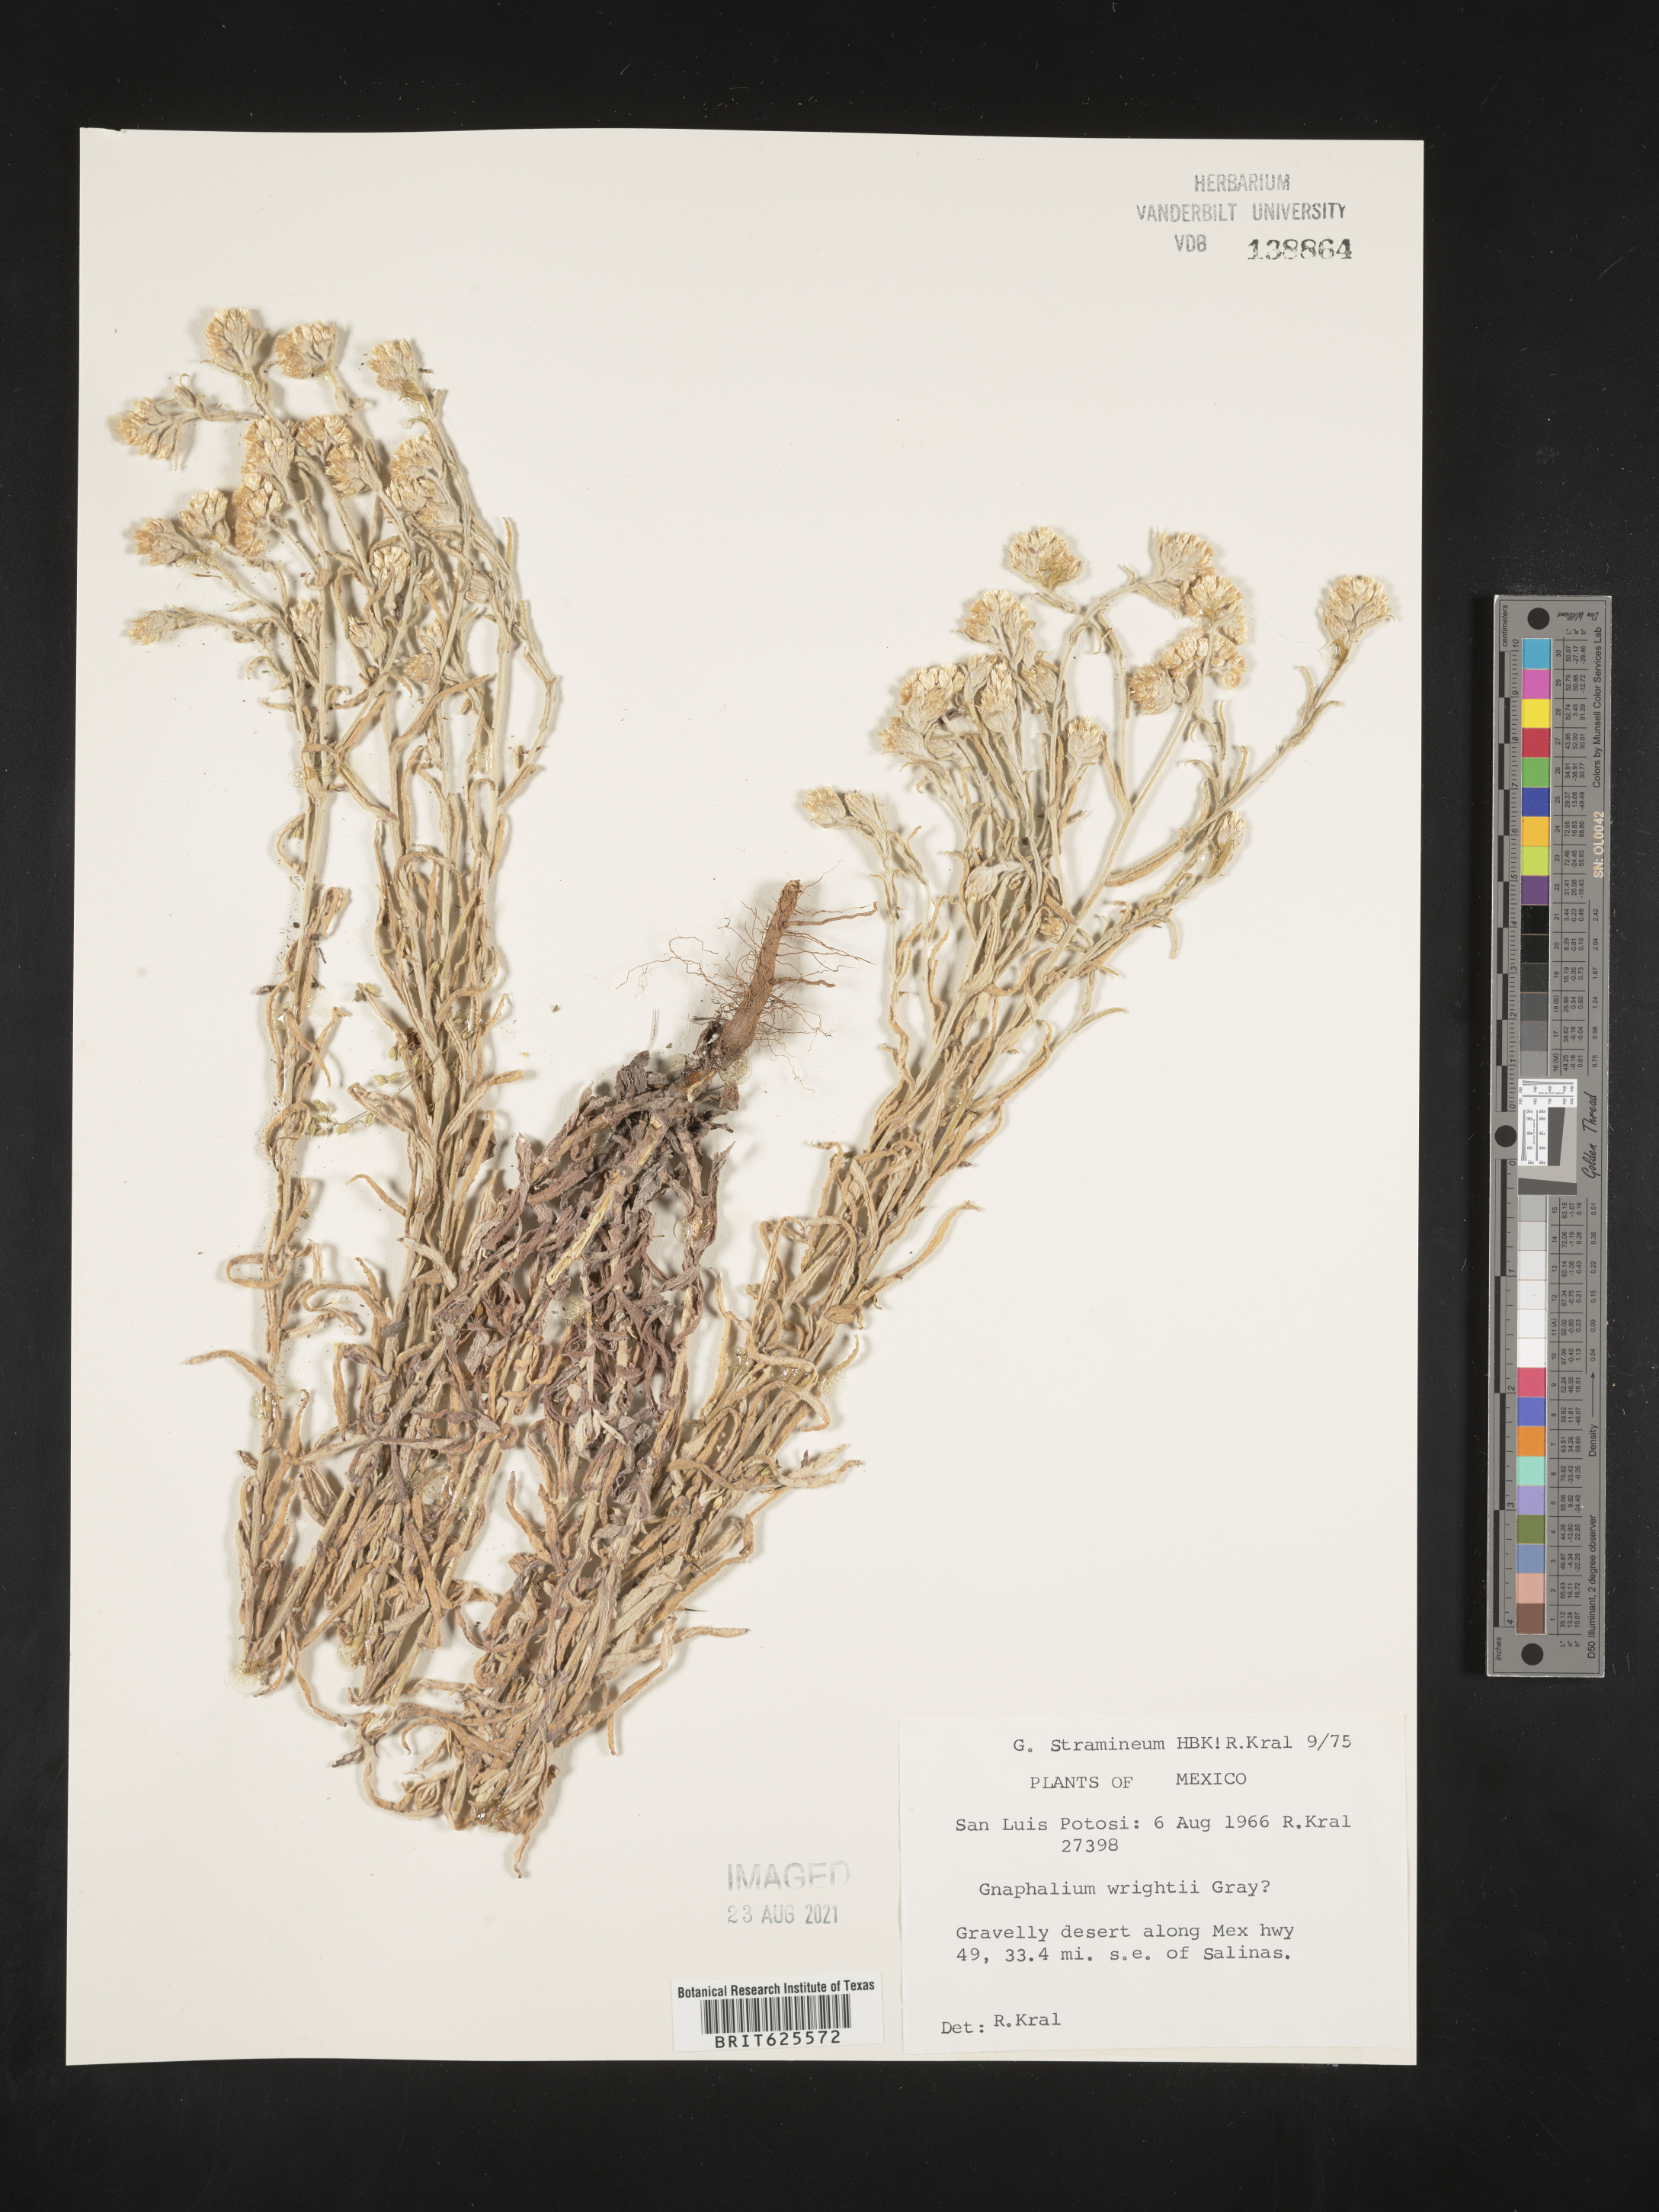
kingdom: Plantae
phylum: Tracheophyta
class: Magnoliopsida
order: Asterales
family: Asteraceae
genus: Gnaphalium
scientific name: Gnaphalium
